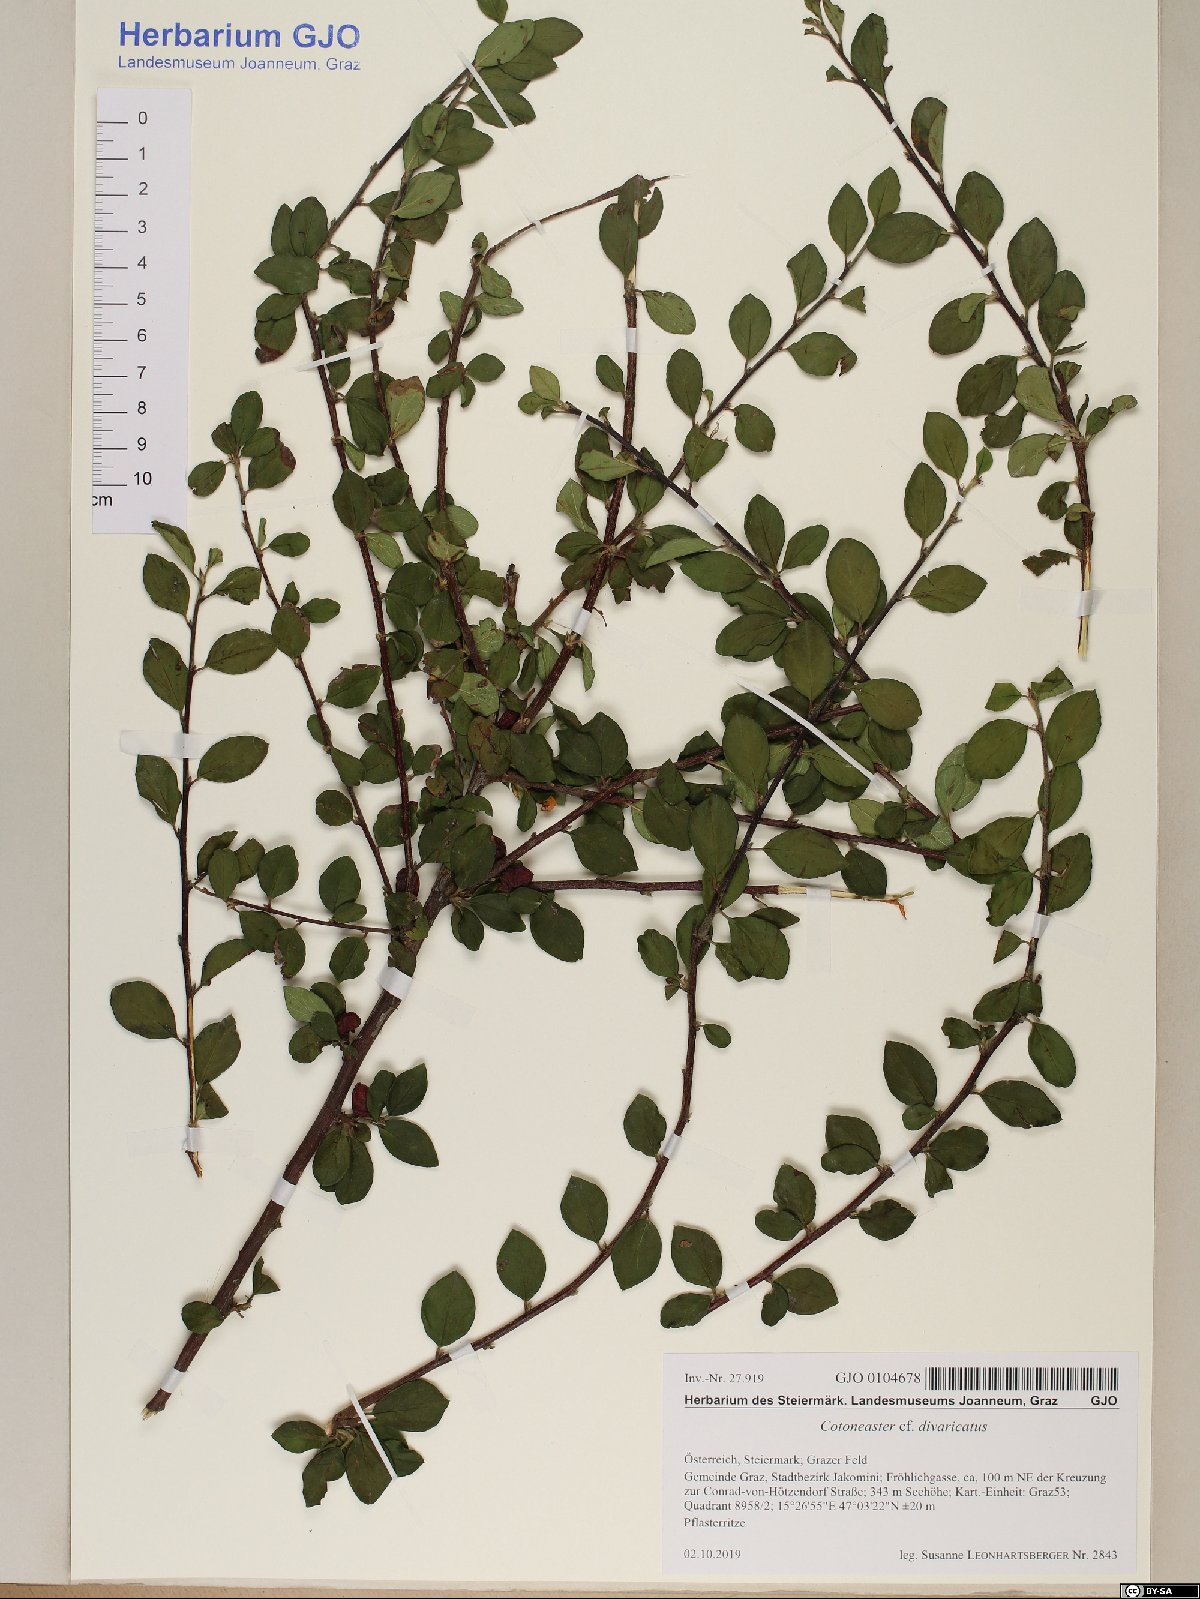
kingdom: Plantae
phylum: Tracheophyta
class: Magnoliopsida
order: Rosales
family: Rosaceae
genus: Cotoneaster
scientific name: Cotoneaster divaricatus
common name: Spreading cotoneaster
